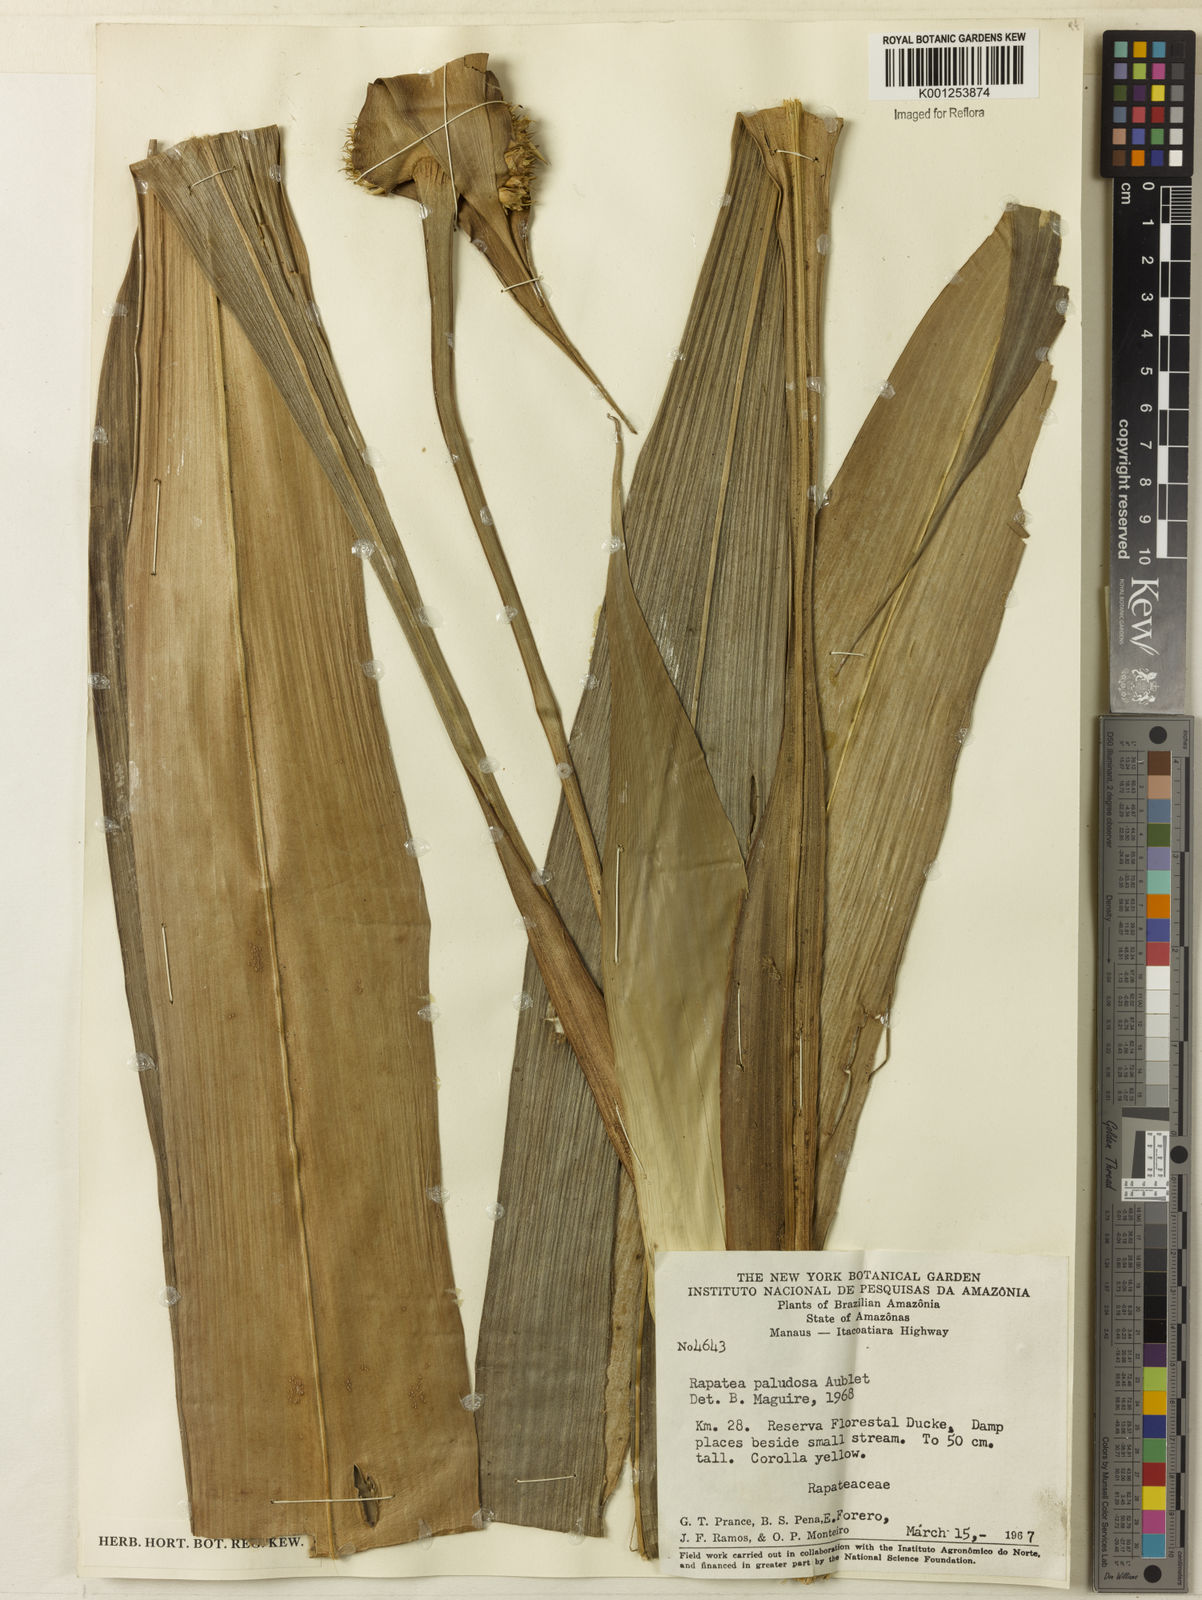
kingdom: Plantae
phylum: Tracheophyta
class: Liliopsida
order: Poales
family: Rapateaceae
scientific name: Rapateaceae
